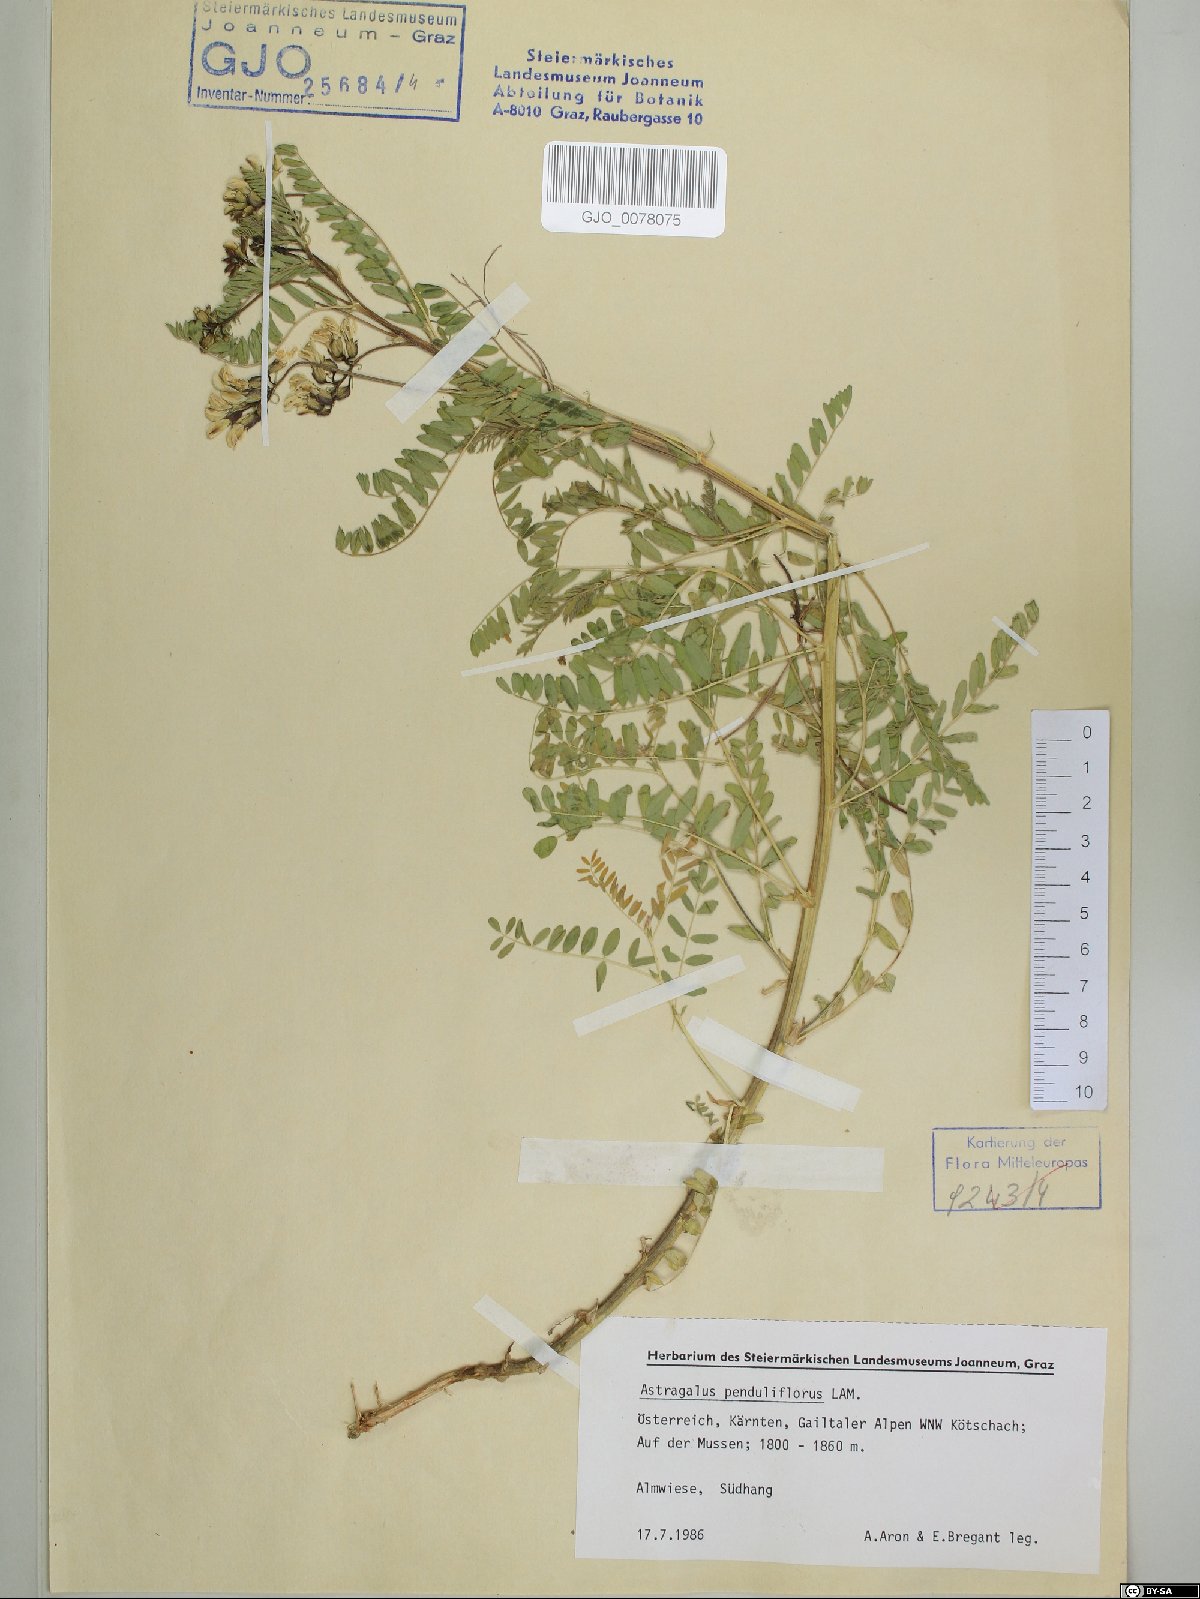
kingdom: Plantae
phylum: Tracheophyta
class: Magnoliopsida
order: Fabales
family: Fabaceae
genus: Astragalus
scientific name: Astragalus penduliflorus
